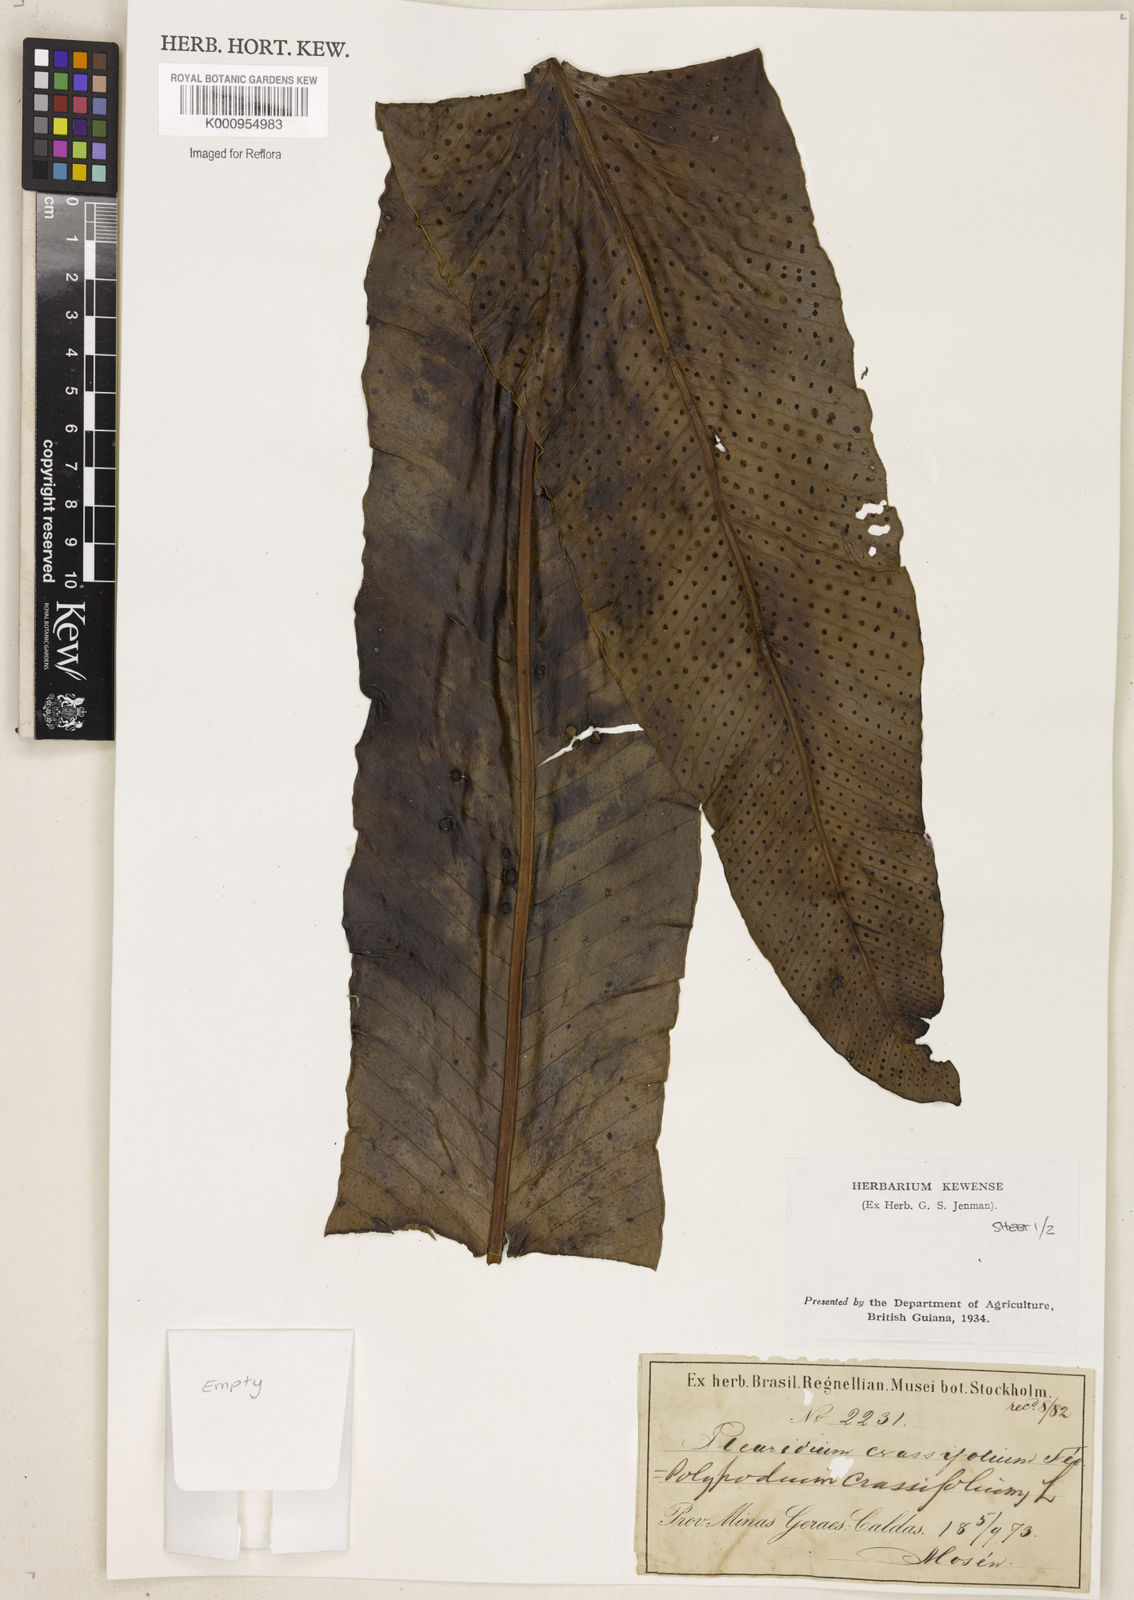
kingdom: Plantae
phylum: Tracheophyta
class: Polypodiopsida
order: Polypodiales
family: Polypodiaceae
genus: Niphidium
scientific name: Niphidium crassifolium
